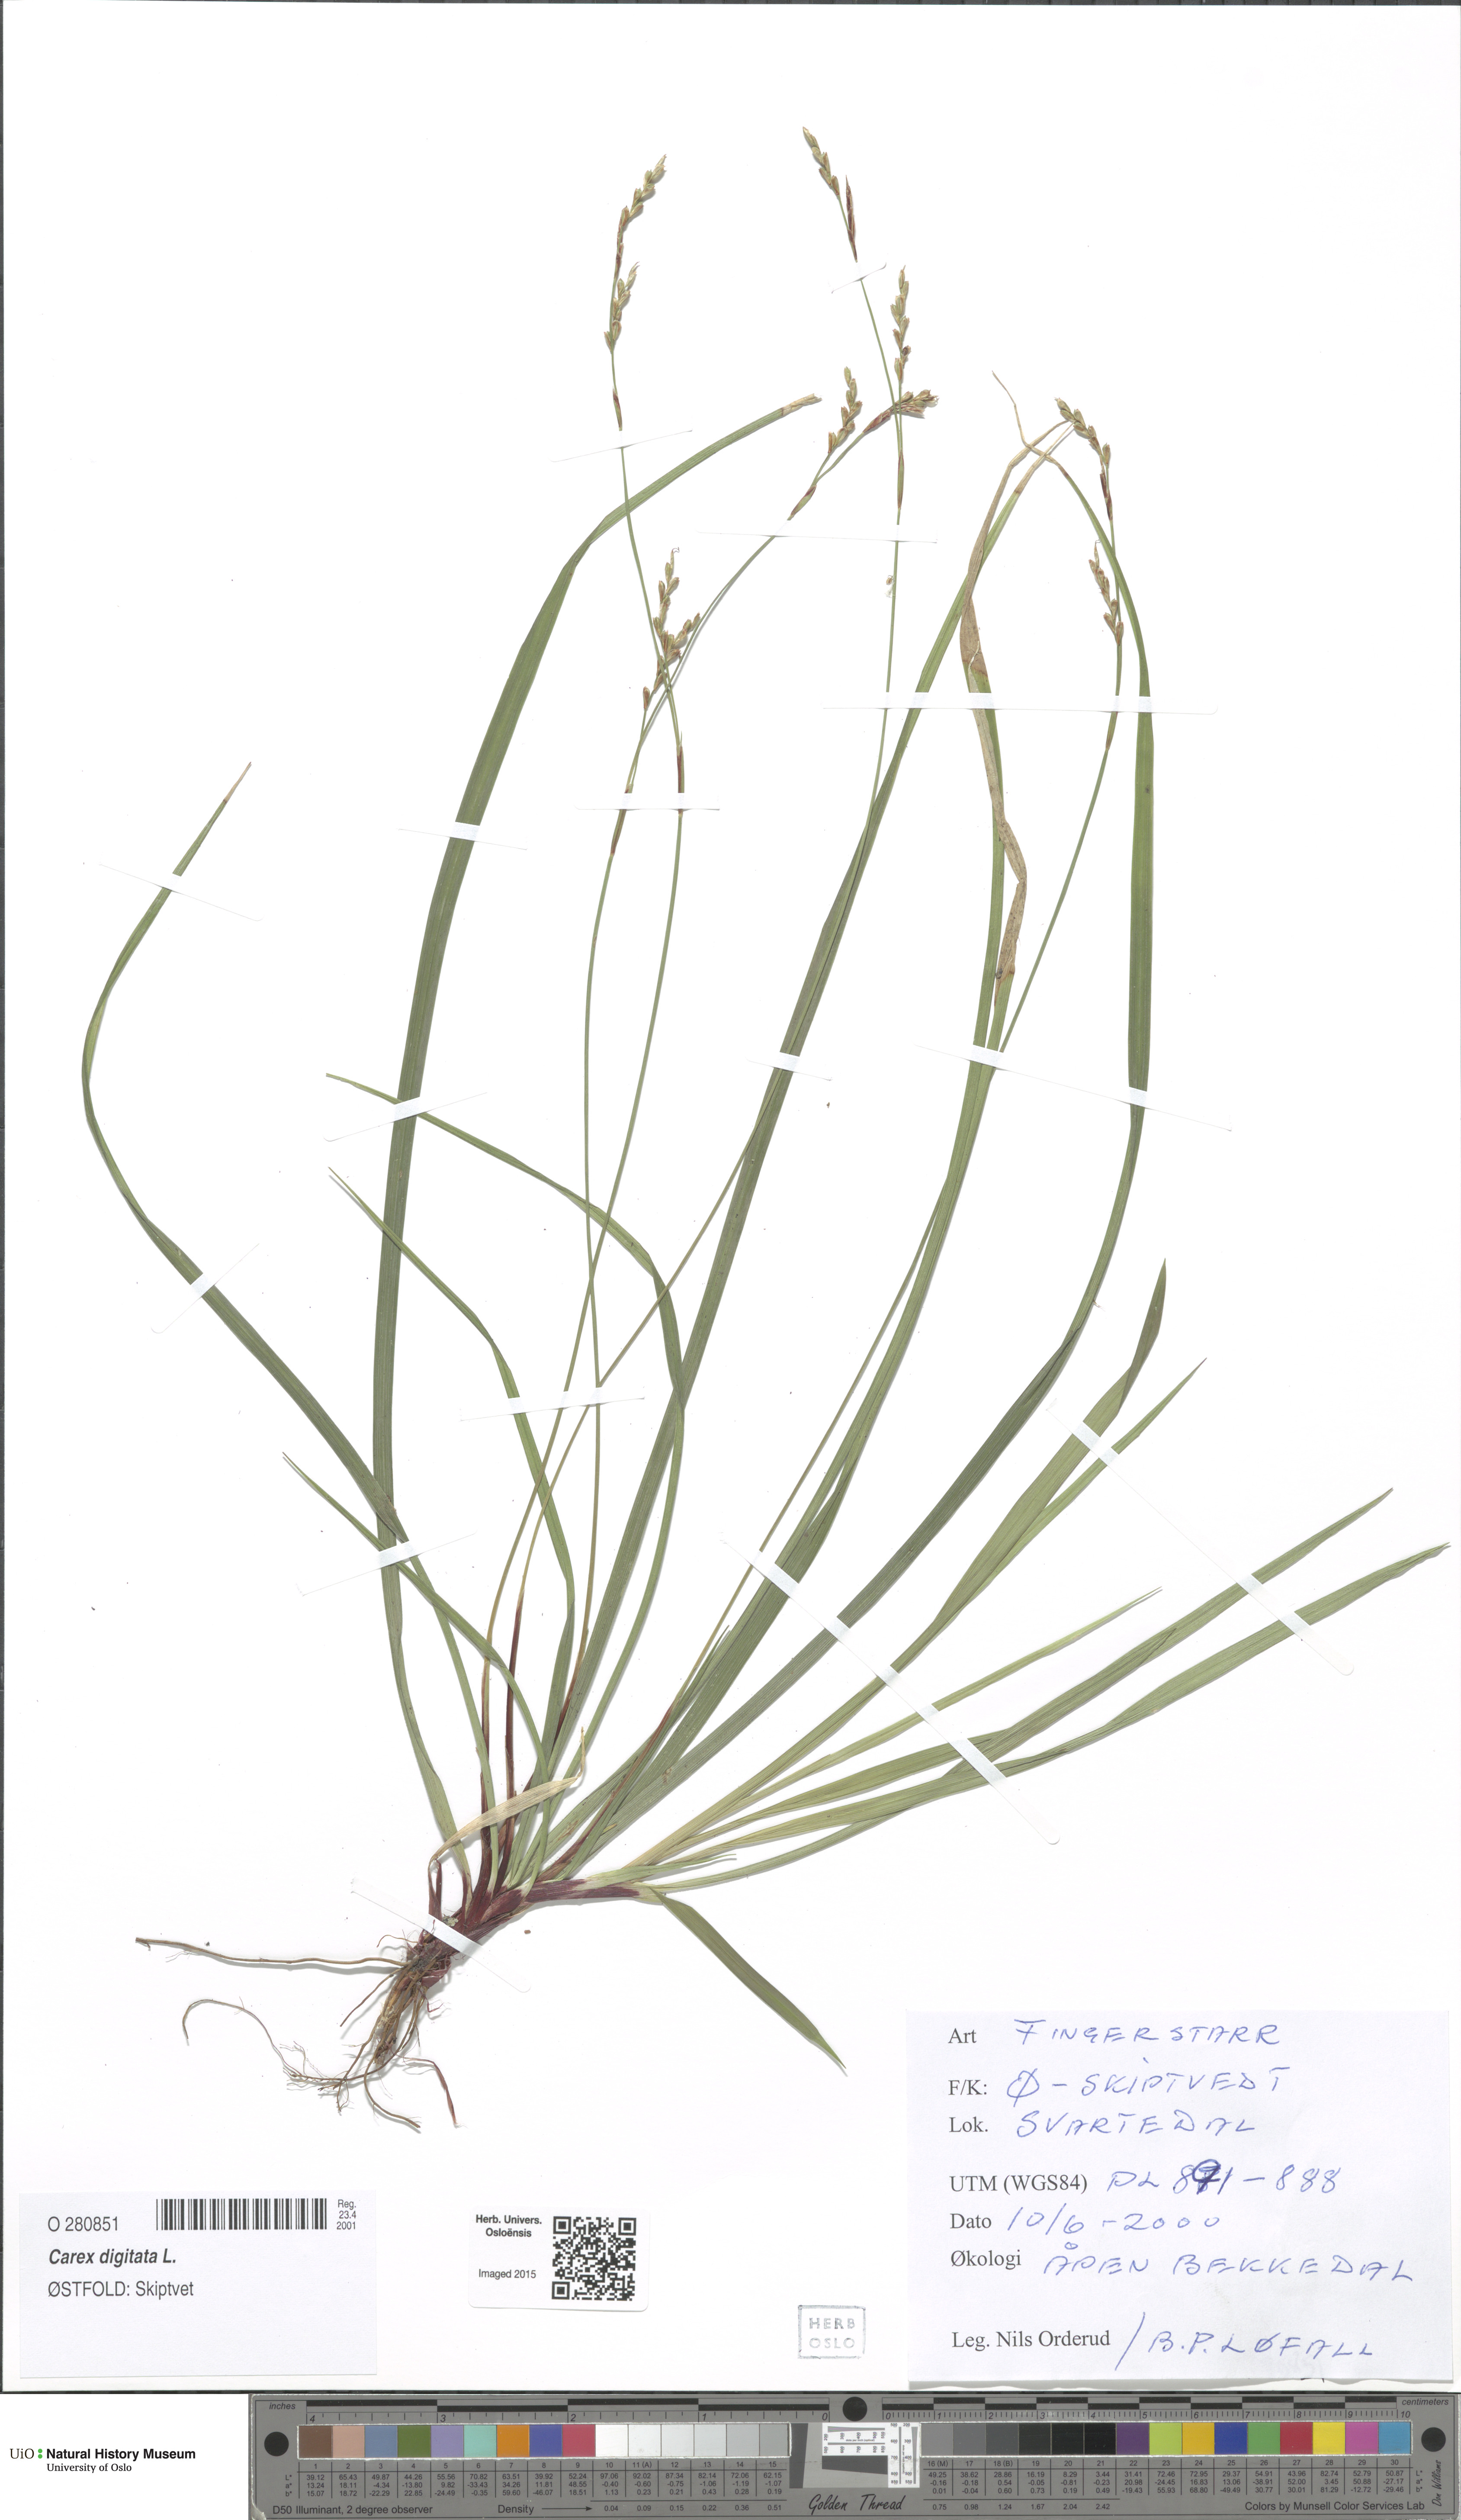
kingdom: Plantae
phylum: Tracheophyta
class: Liliopsida
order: Poales
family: Cyperaceae
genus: Carex
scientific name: Carex digitata
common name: Fingered sedge
